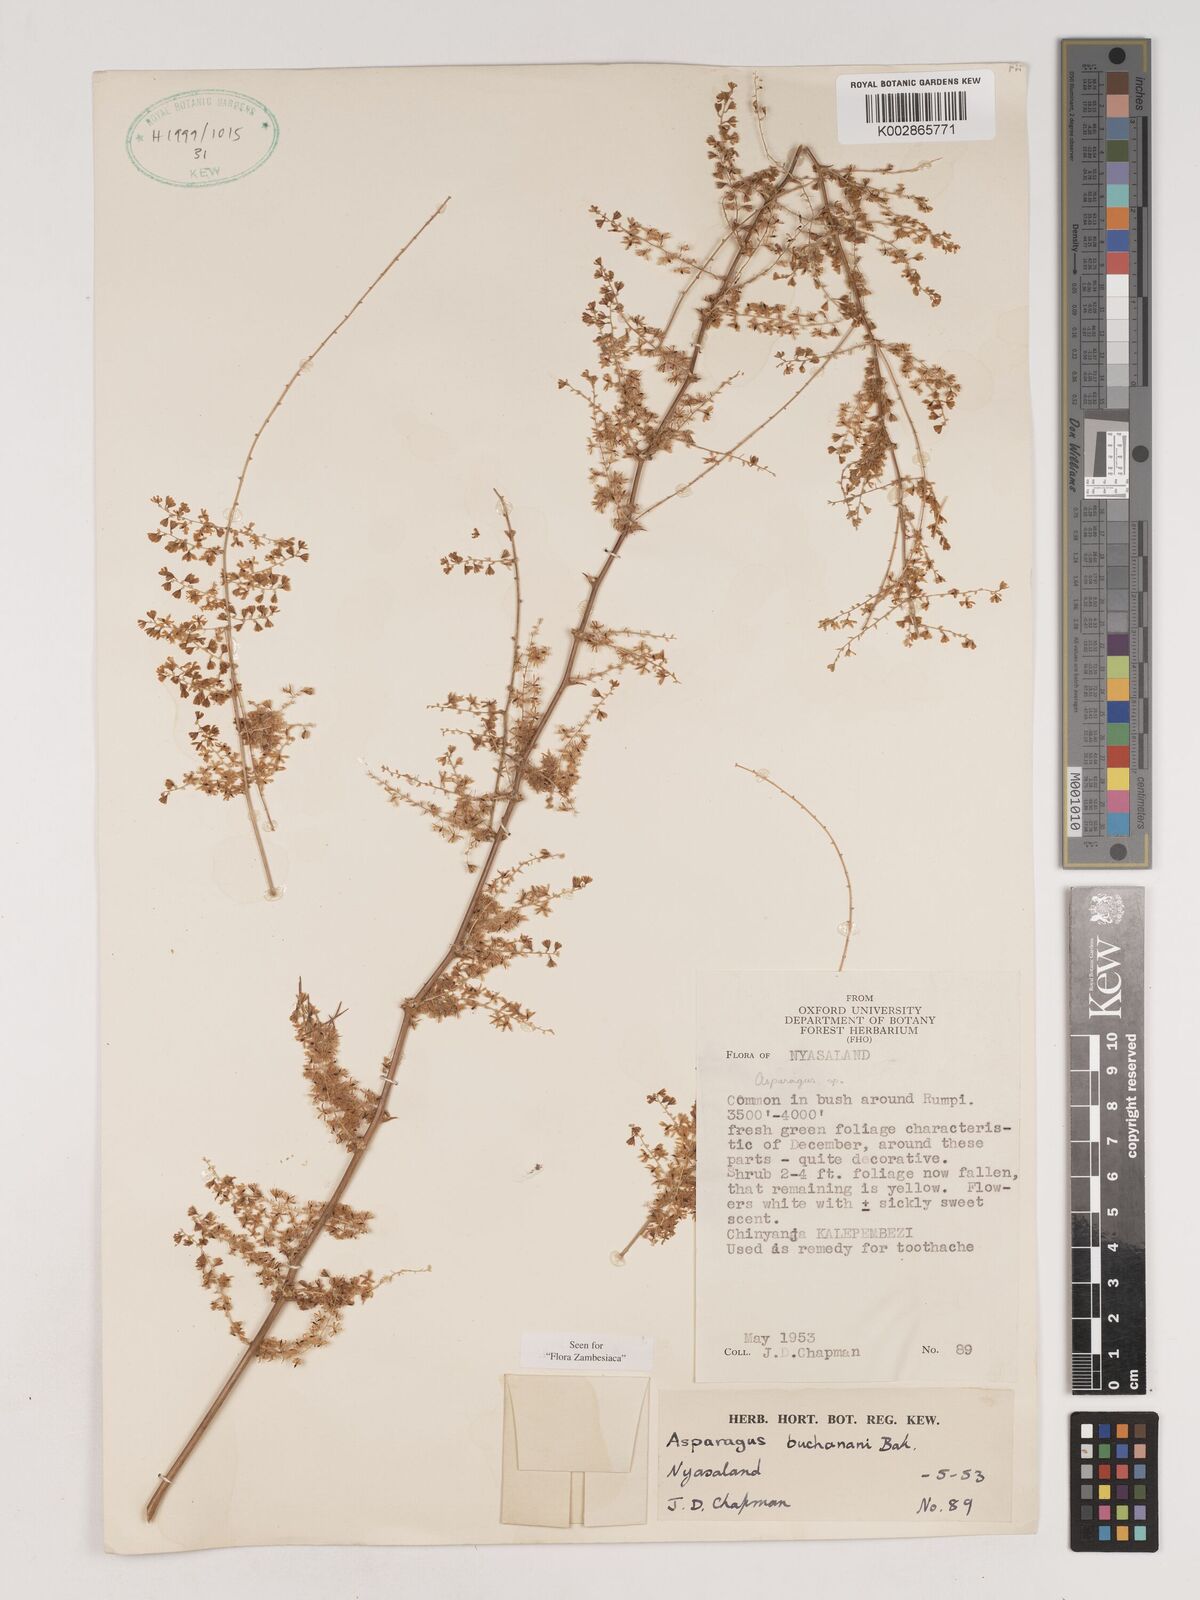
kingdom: Plantae
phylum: Tracheophyta
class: Liliopsida
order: Asparagales
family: Asparagaceae
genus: Asparagus
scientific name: Asparagus buchananii
